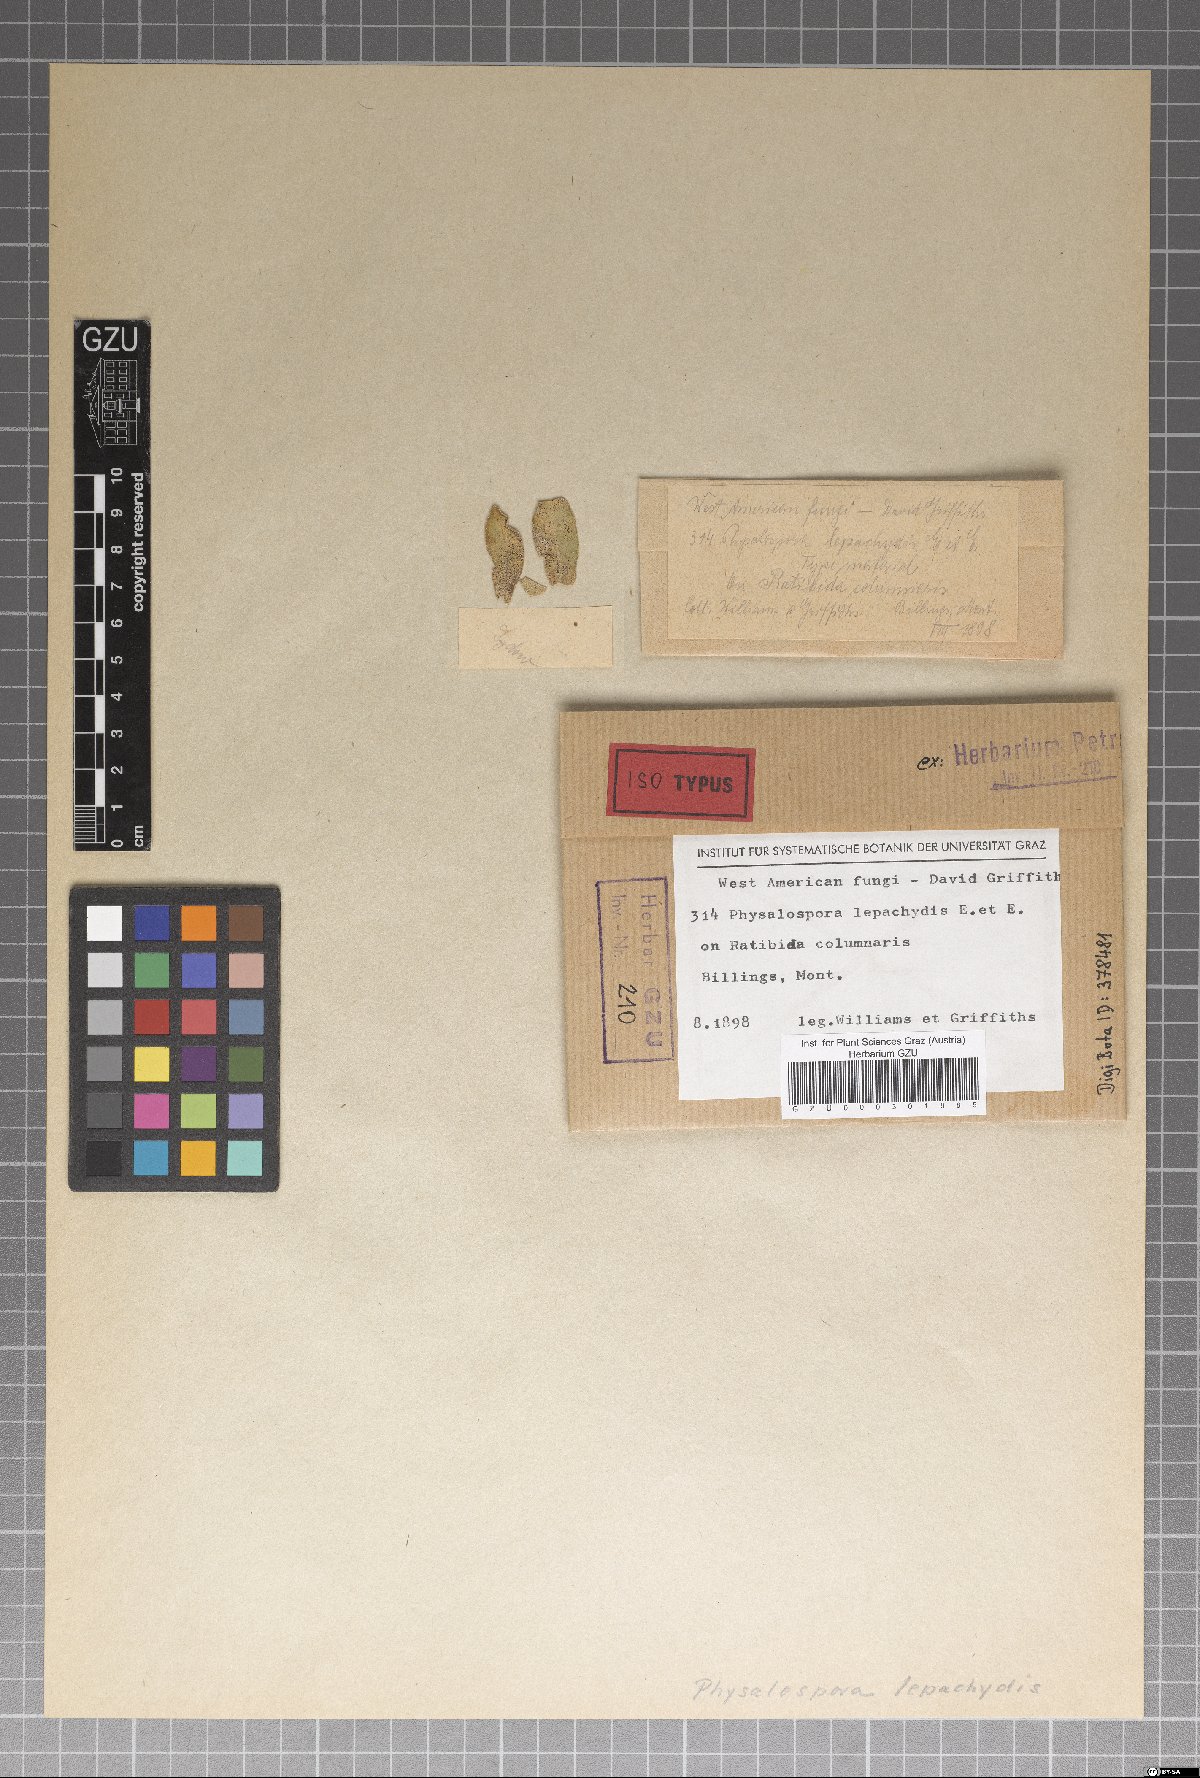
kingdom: Fungi
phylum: Ascomycota
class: Sordariomycetes
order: Xylariales
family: Hyponectriaceae
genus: Physalospora
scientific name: Physalospora
